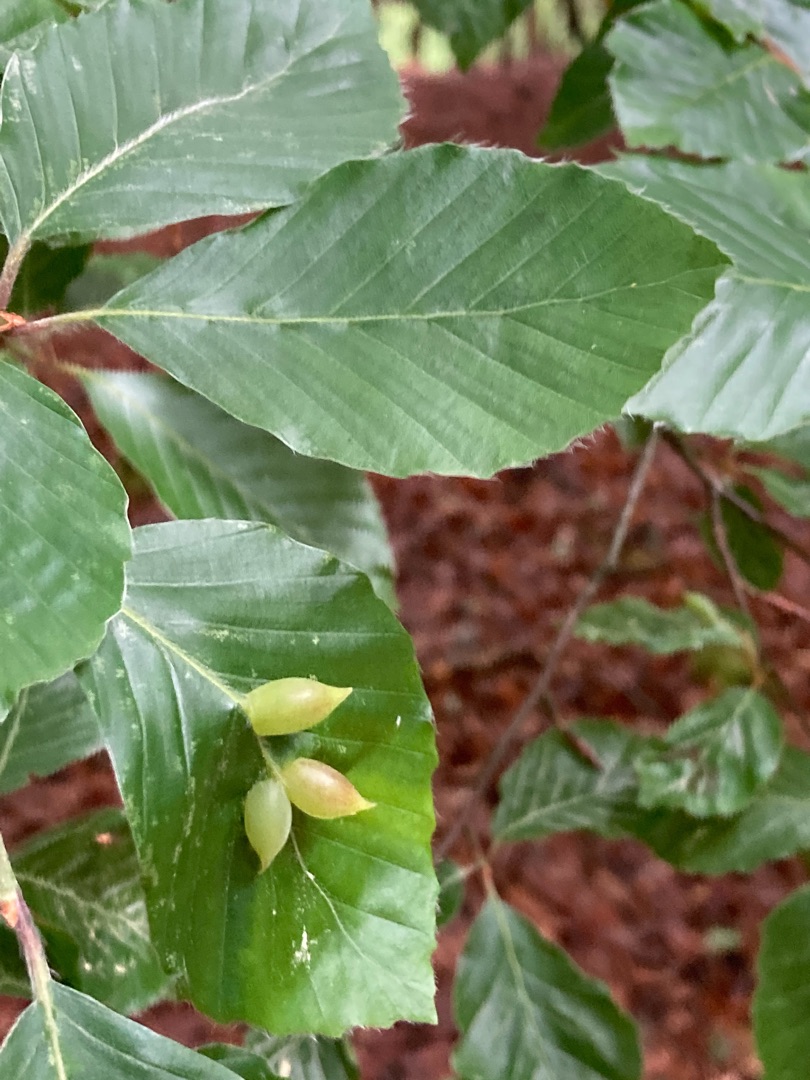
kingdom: Animalia
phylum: Arthropoda
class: Insecta
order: Diptera
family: Cecidomyiidae
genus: Mikiola
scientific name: Mikiola fagi
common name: Bøgegalmyg
